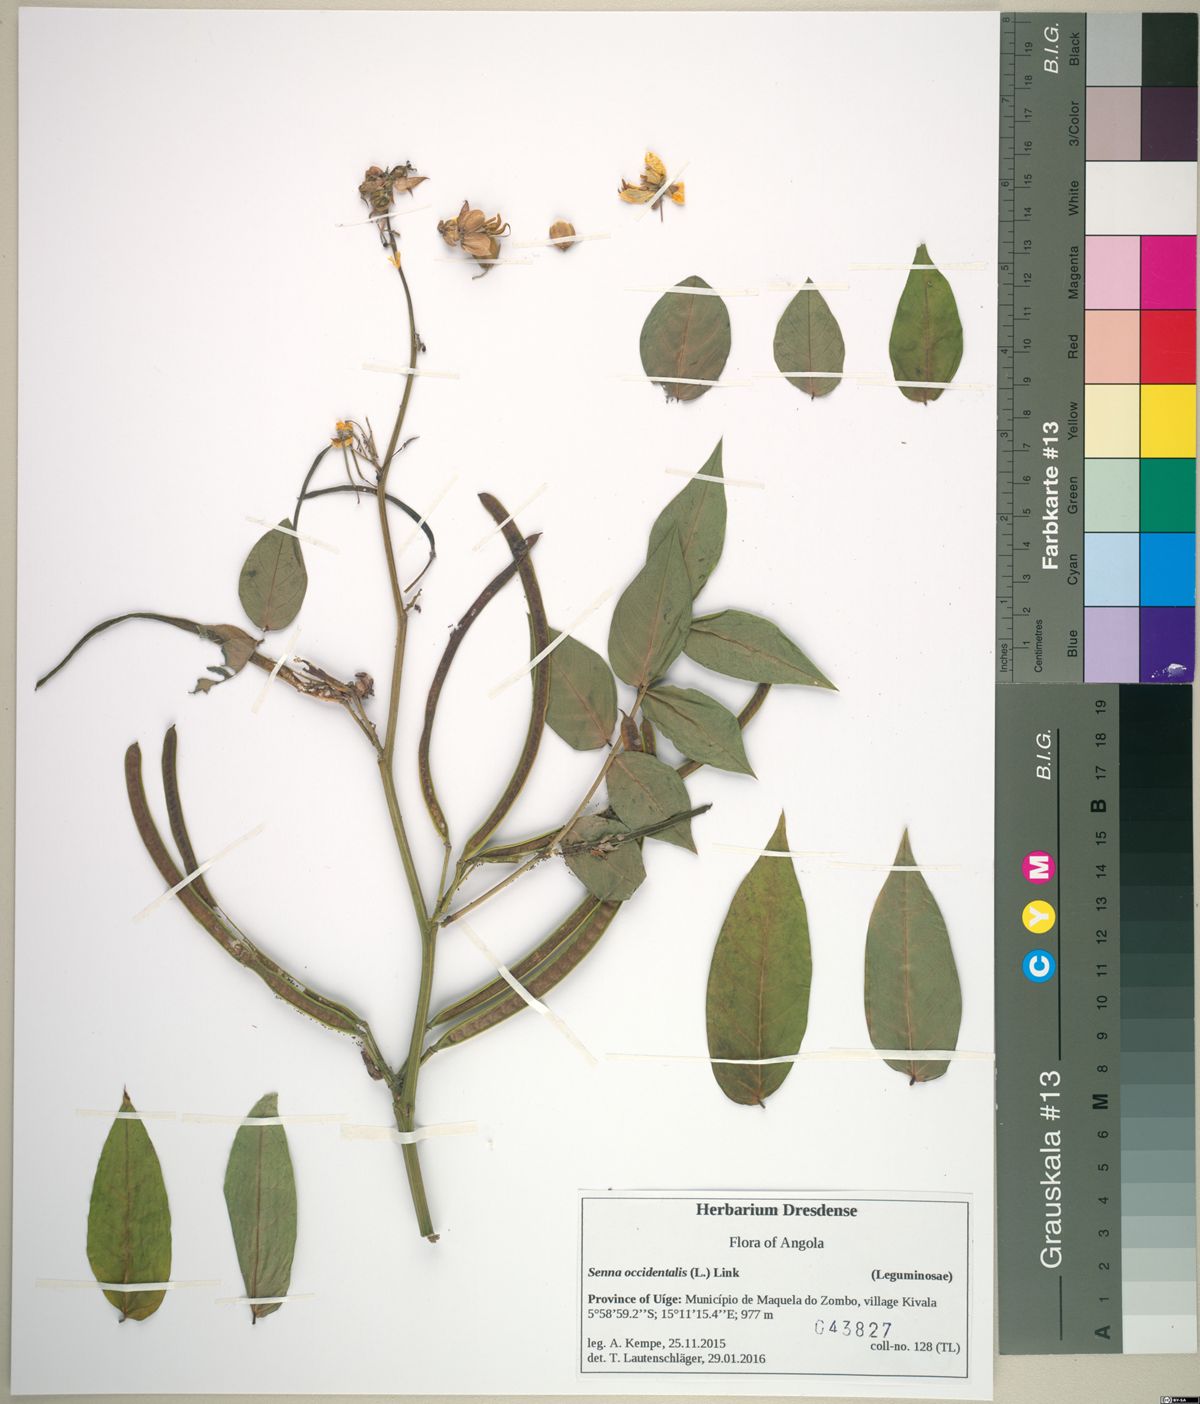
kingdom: Plantae
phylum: Tracheophyta
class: Magnoliopsida
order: Fabales
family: Fabaceae
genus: Senna
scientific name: Senna occidentalis
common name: Septicweed
